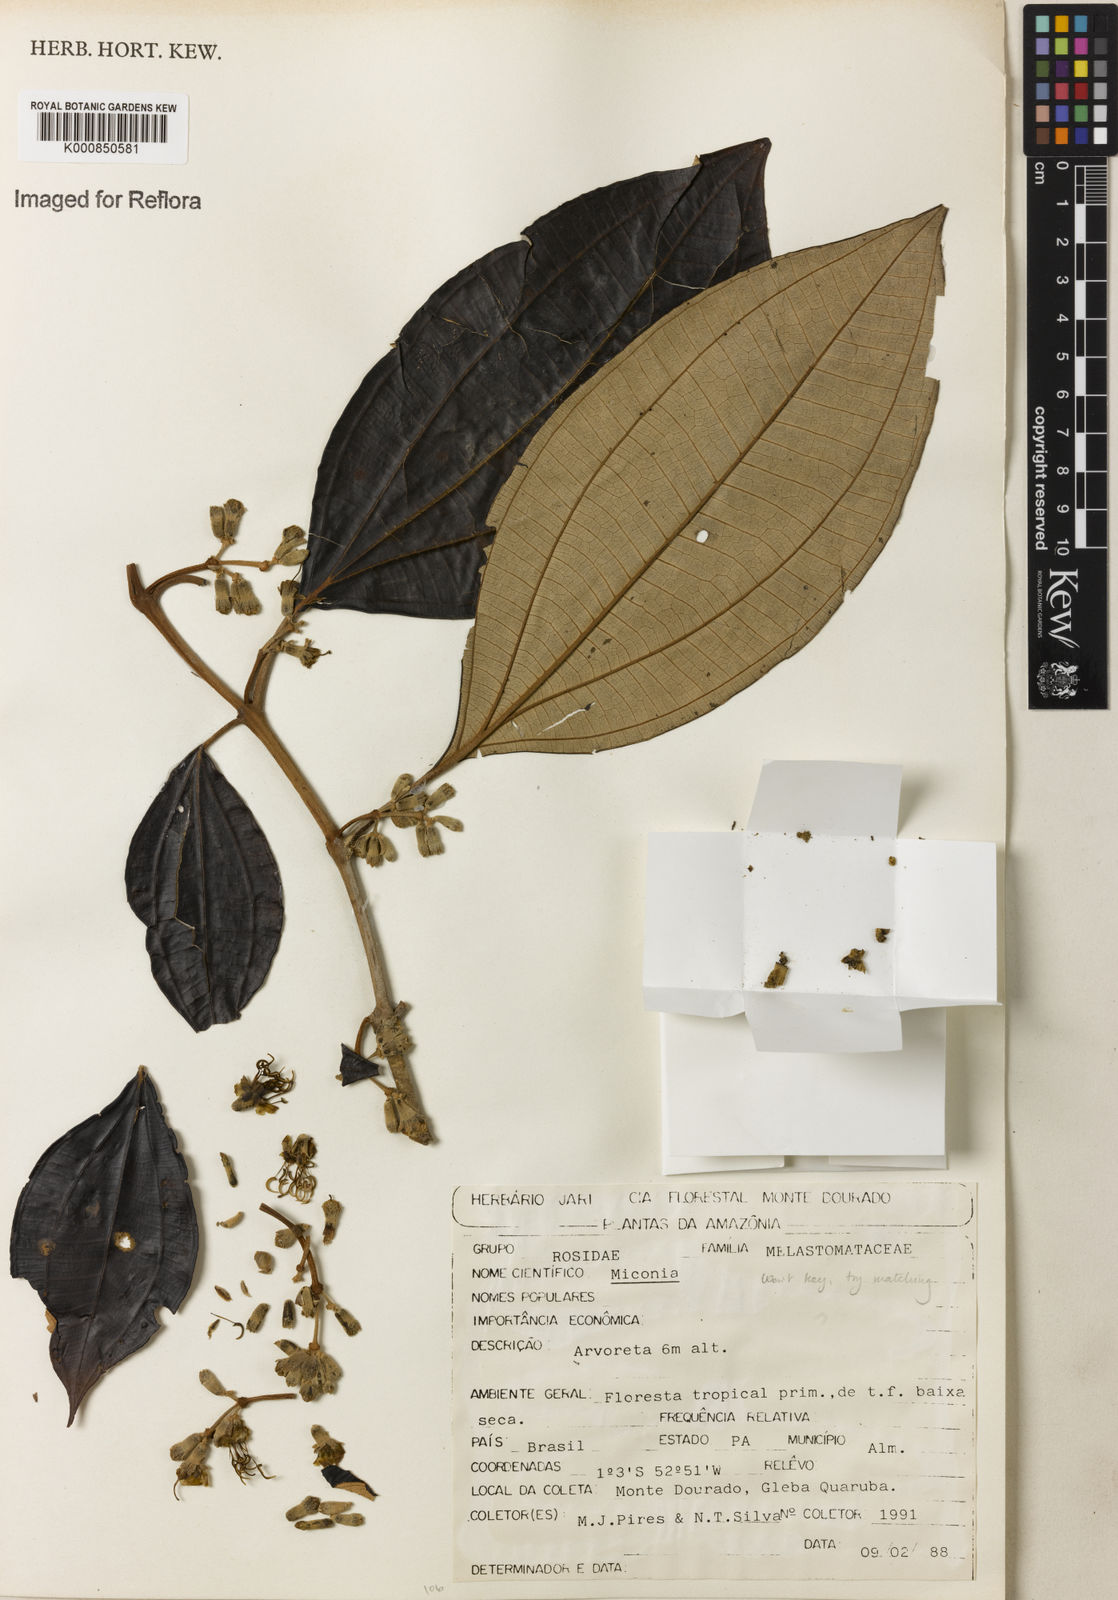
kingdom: Plantae
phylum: Tracheophyta
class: Magnoliopsida
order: Myrtales
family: Melastomataceae
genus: Miconia
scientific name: Miconia
